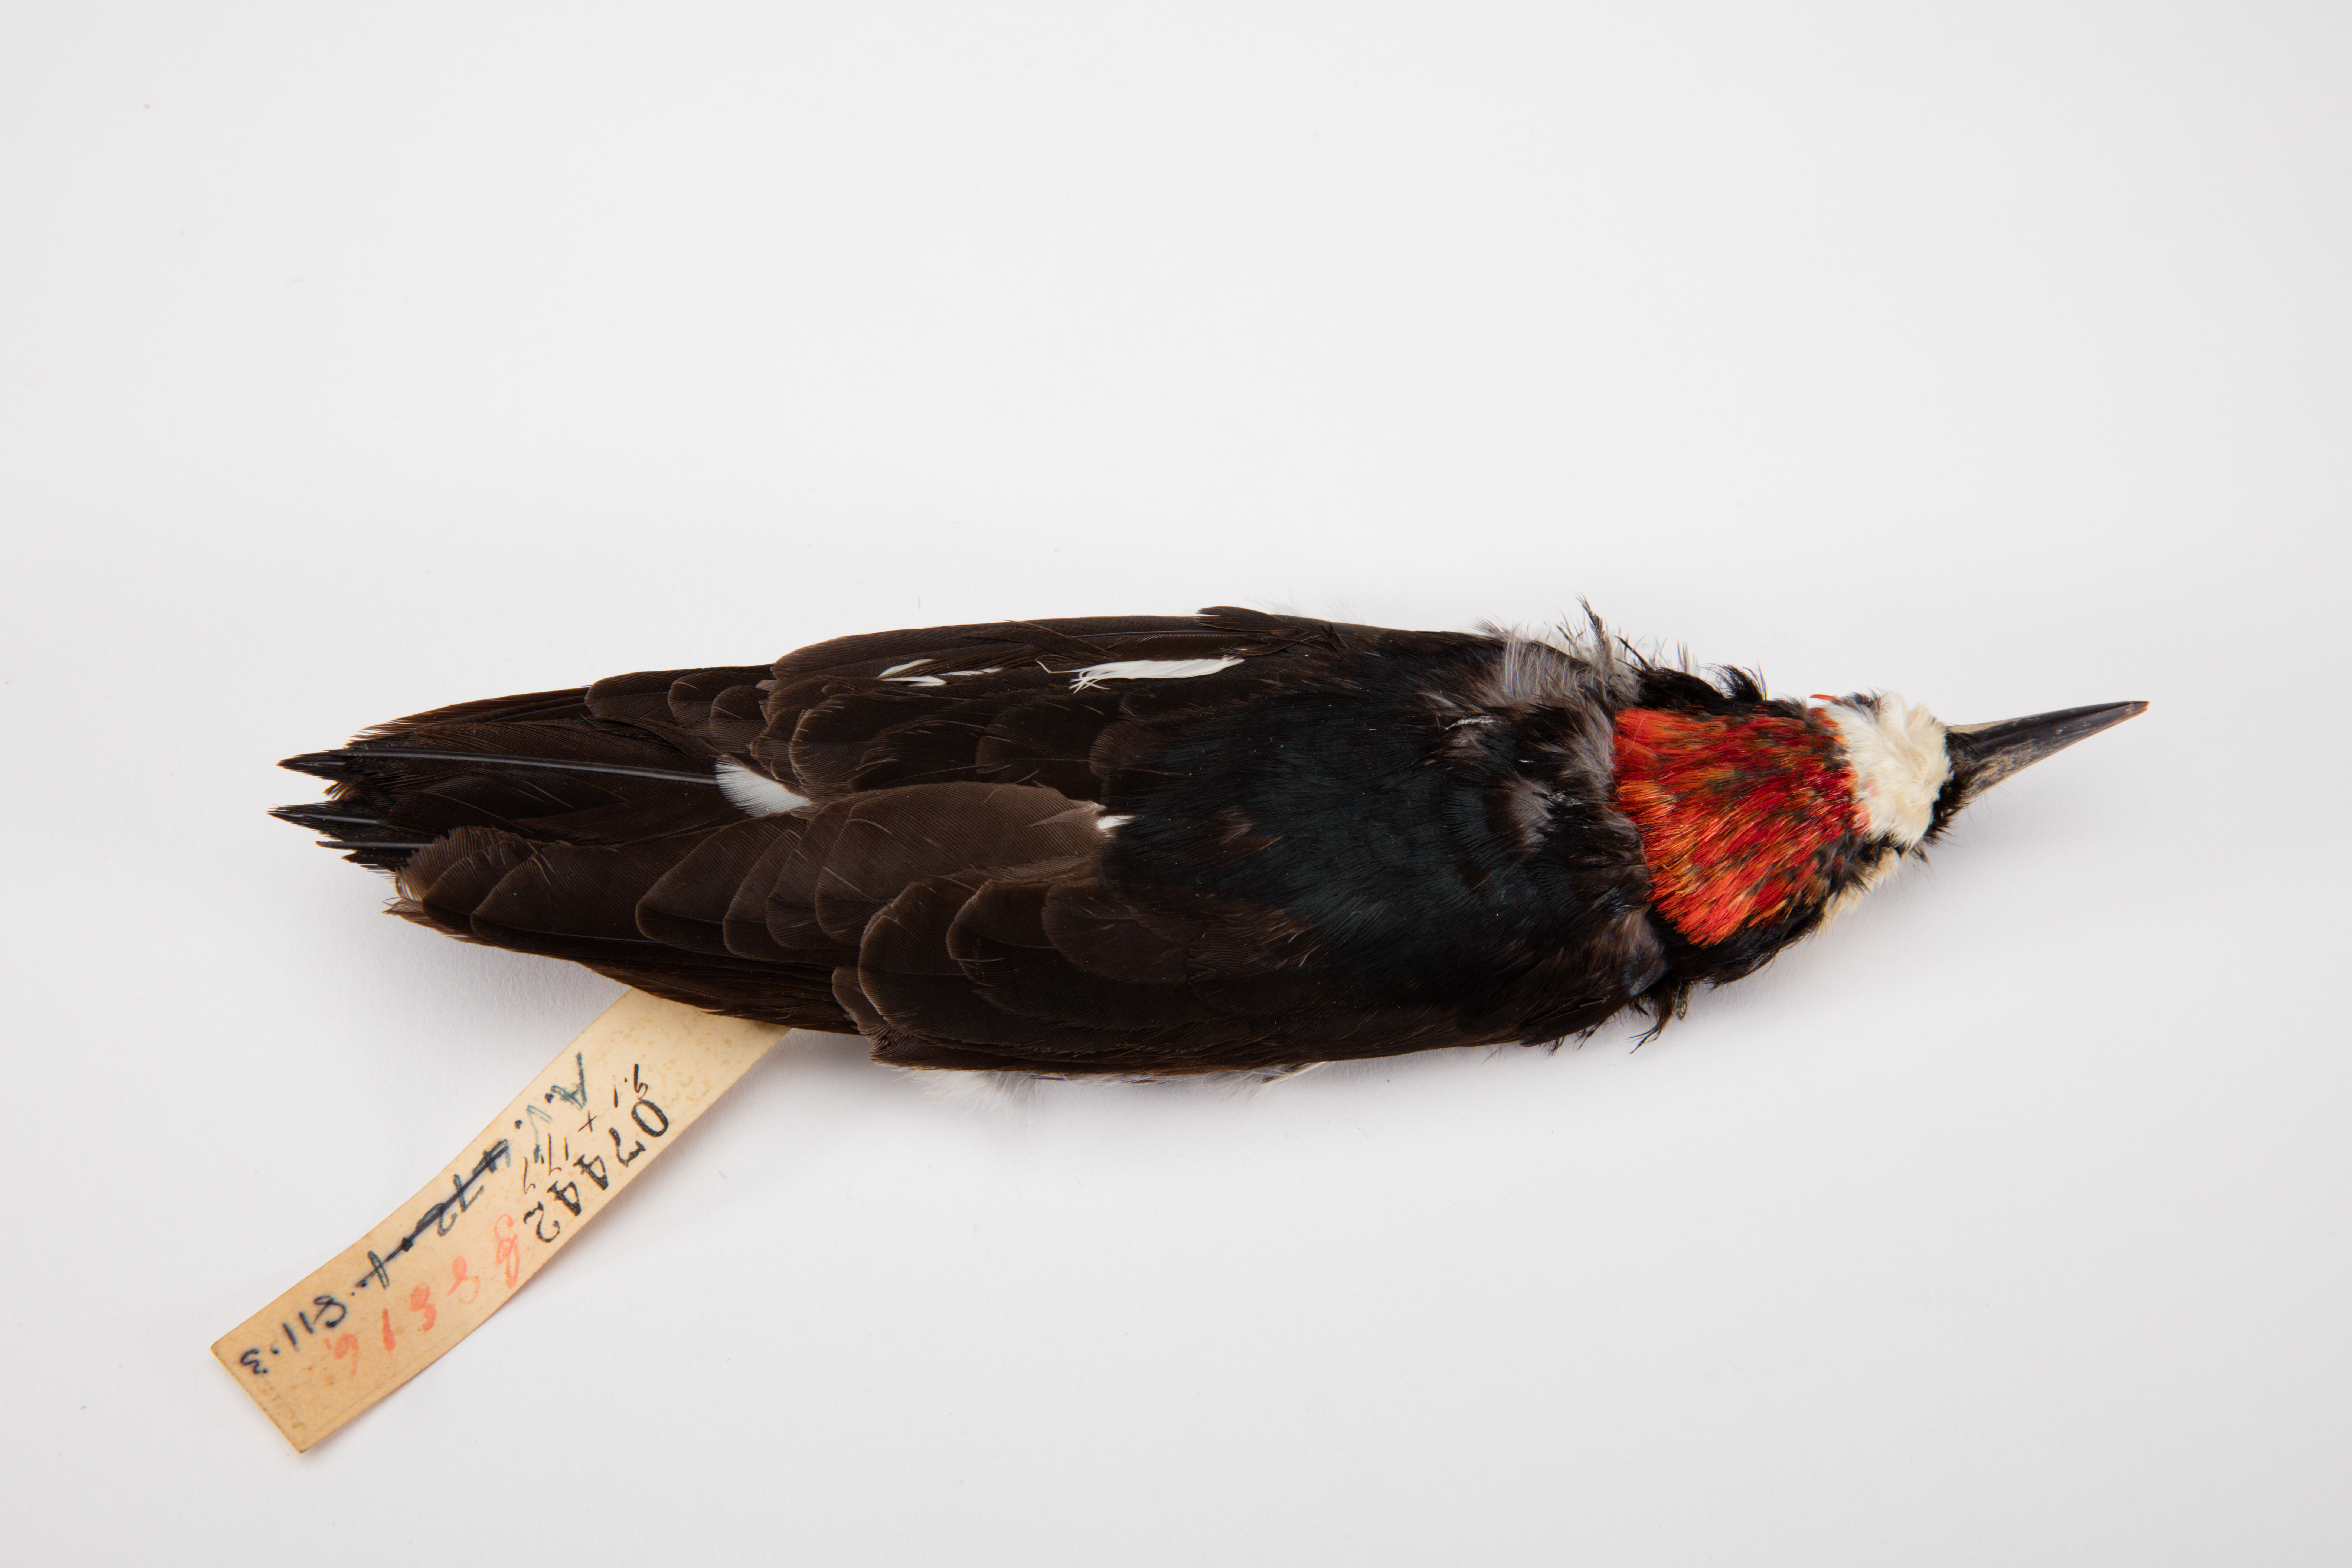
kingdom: Animalia
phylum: Chordata
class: Aves
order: Piciformes
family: Picidae
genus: Melanerpes
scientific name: Melanerpes formicivorus
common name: Acorn woodpecker
